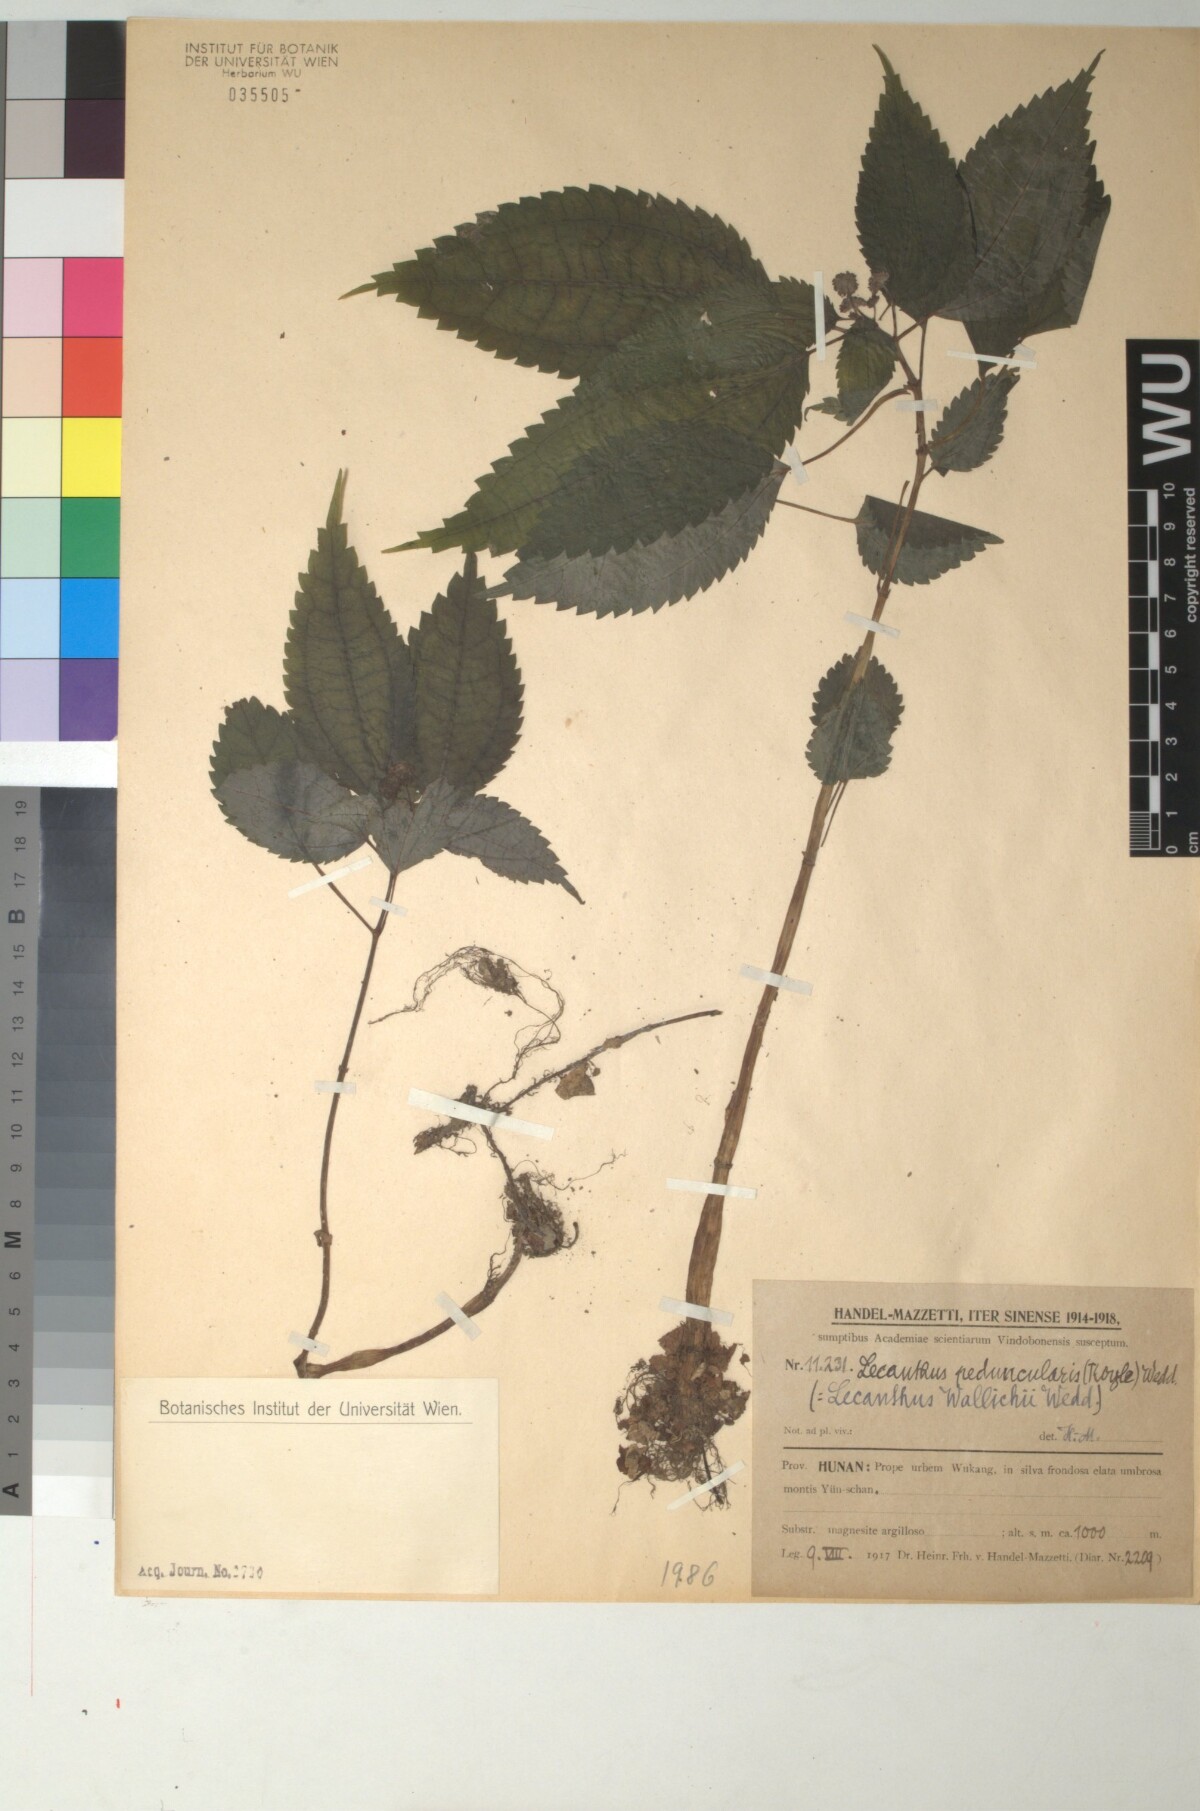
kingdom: Plantae
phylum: Tracheophyta
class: Magnoliopsida
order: Rosales
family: Urticaceae
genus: Lecanthus
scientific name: Lecanthus peduncularis
